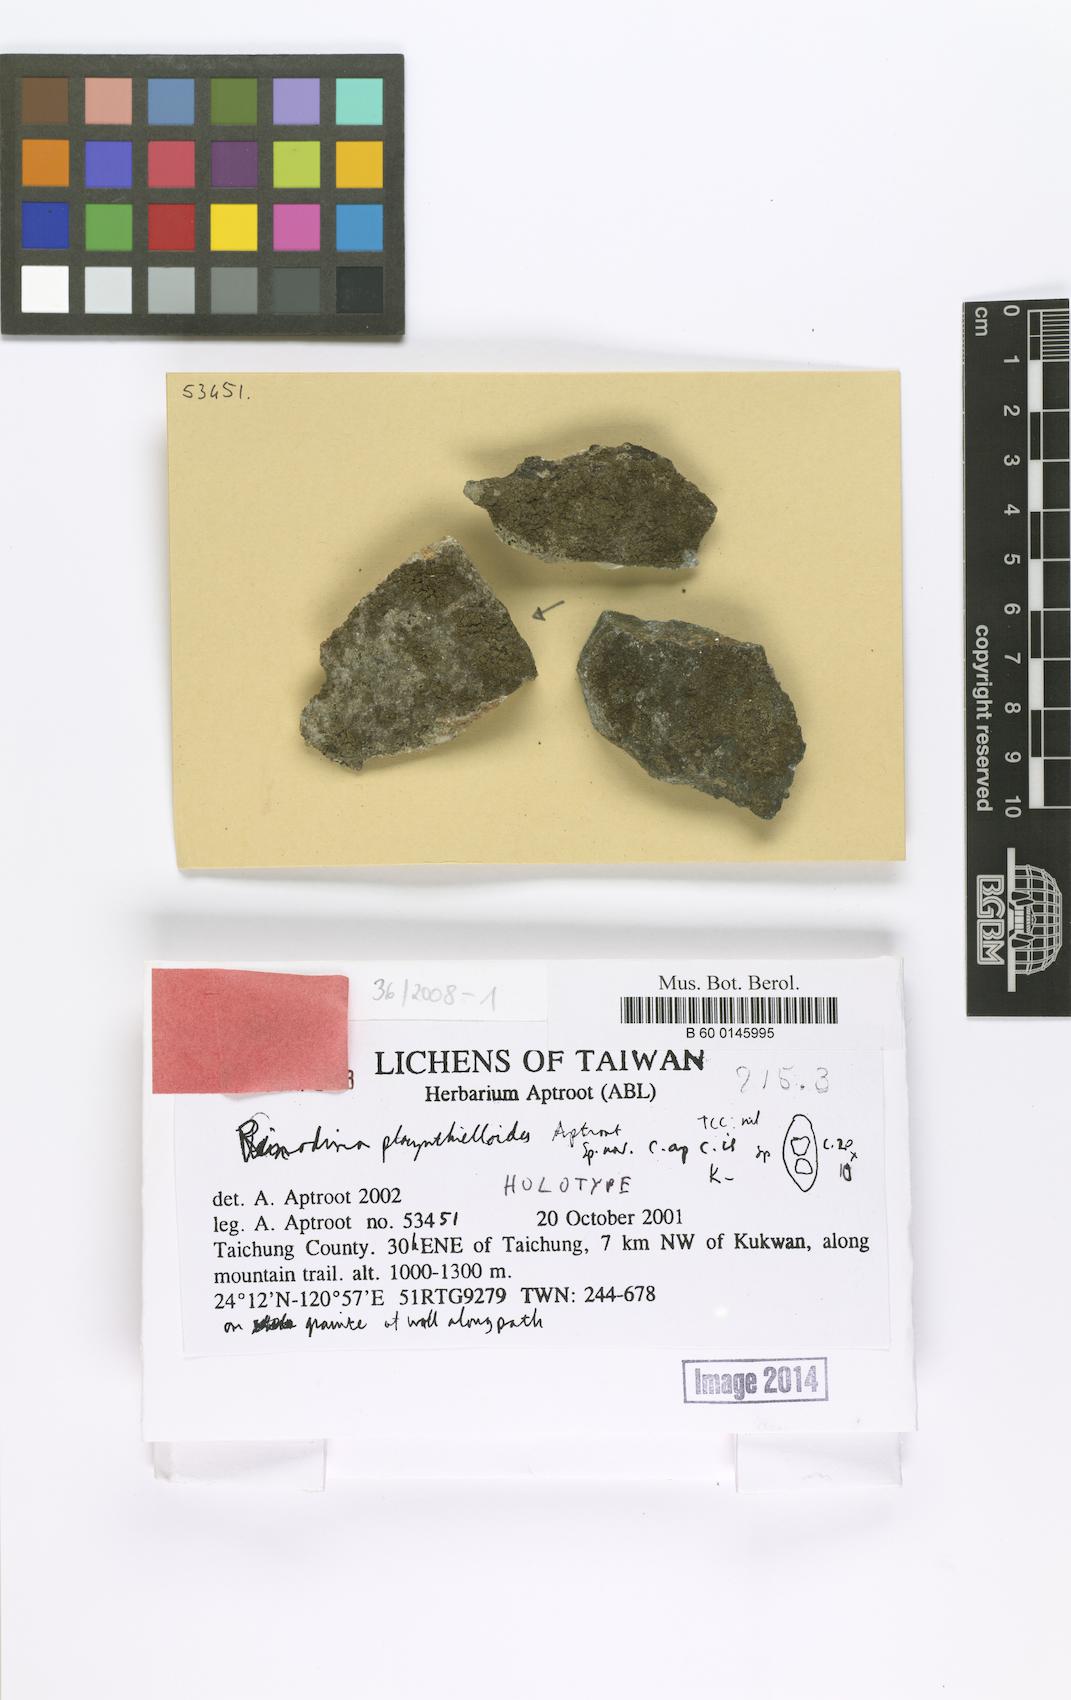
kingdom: Fungi
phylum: Ascomycota
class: Lecanoromycetes
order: Caliciales
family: Physciaceae
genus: Rinodina
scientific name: Rinodina placynthielloides
